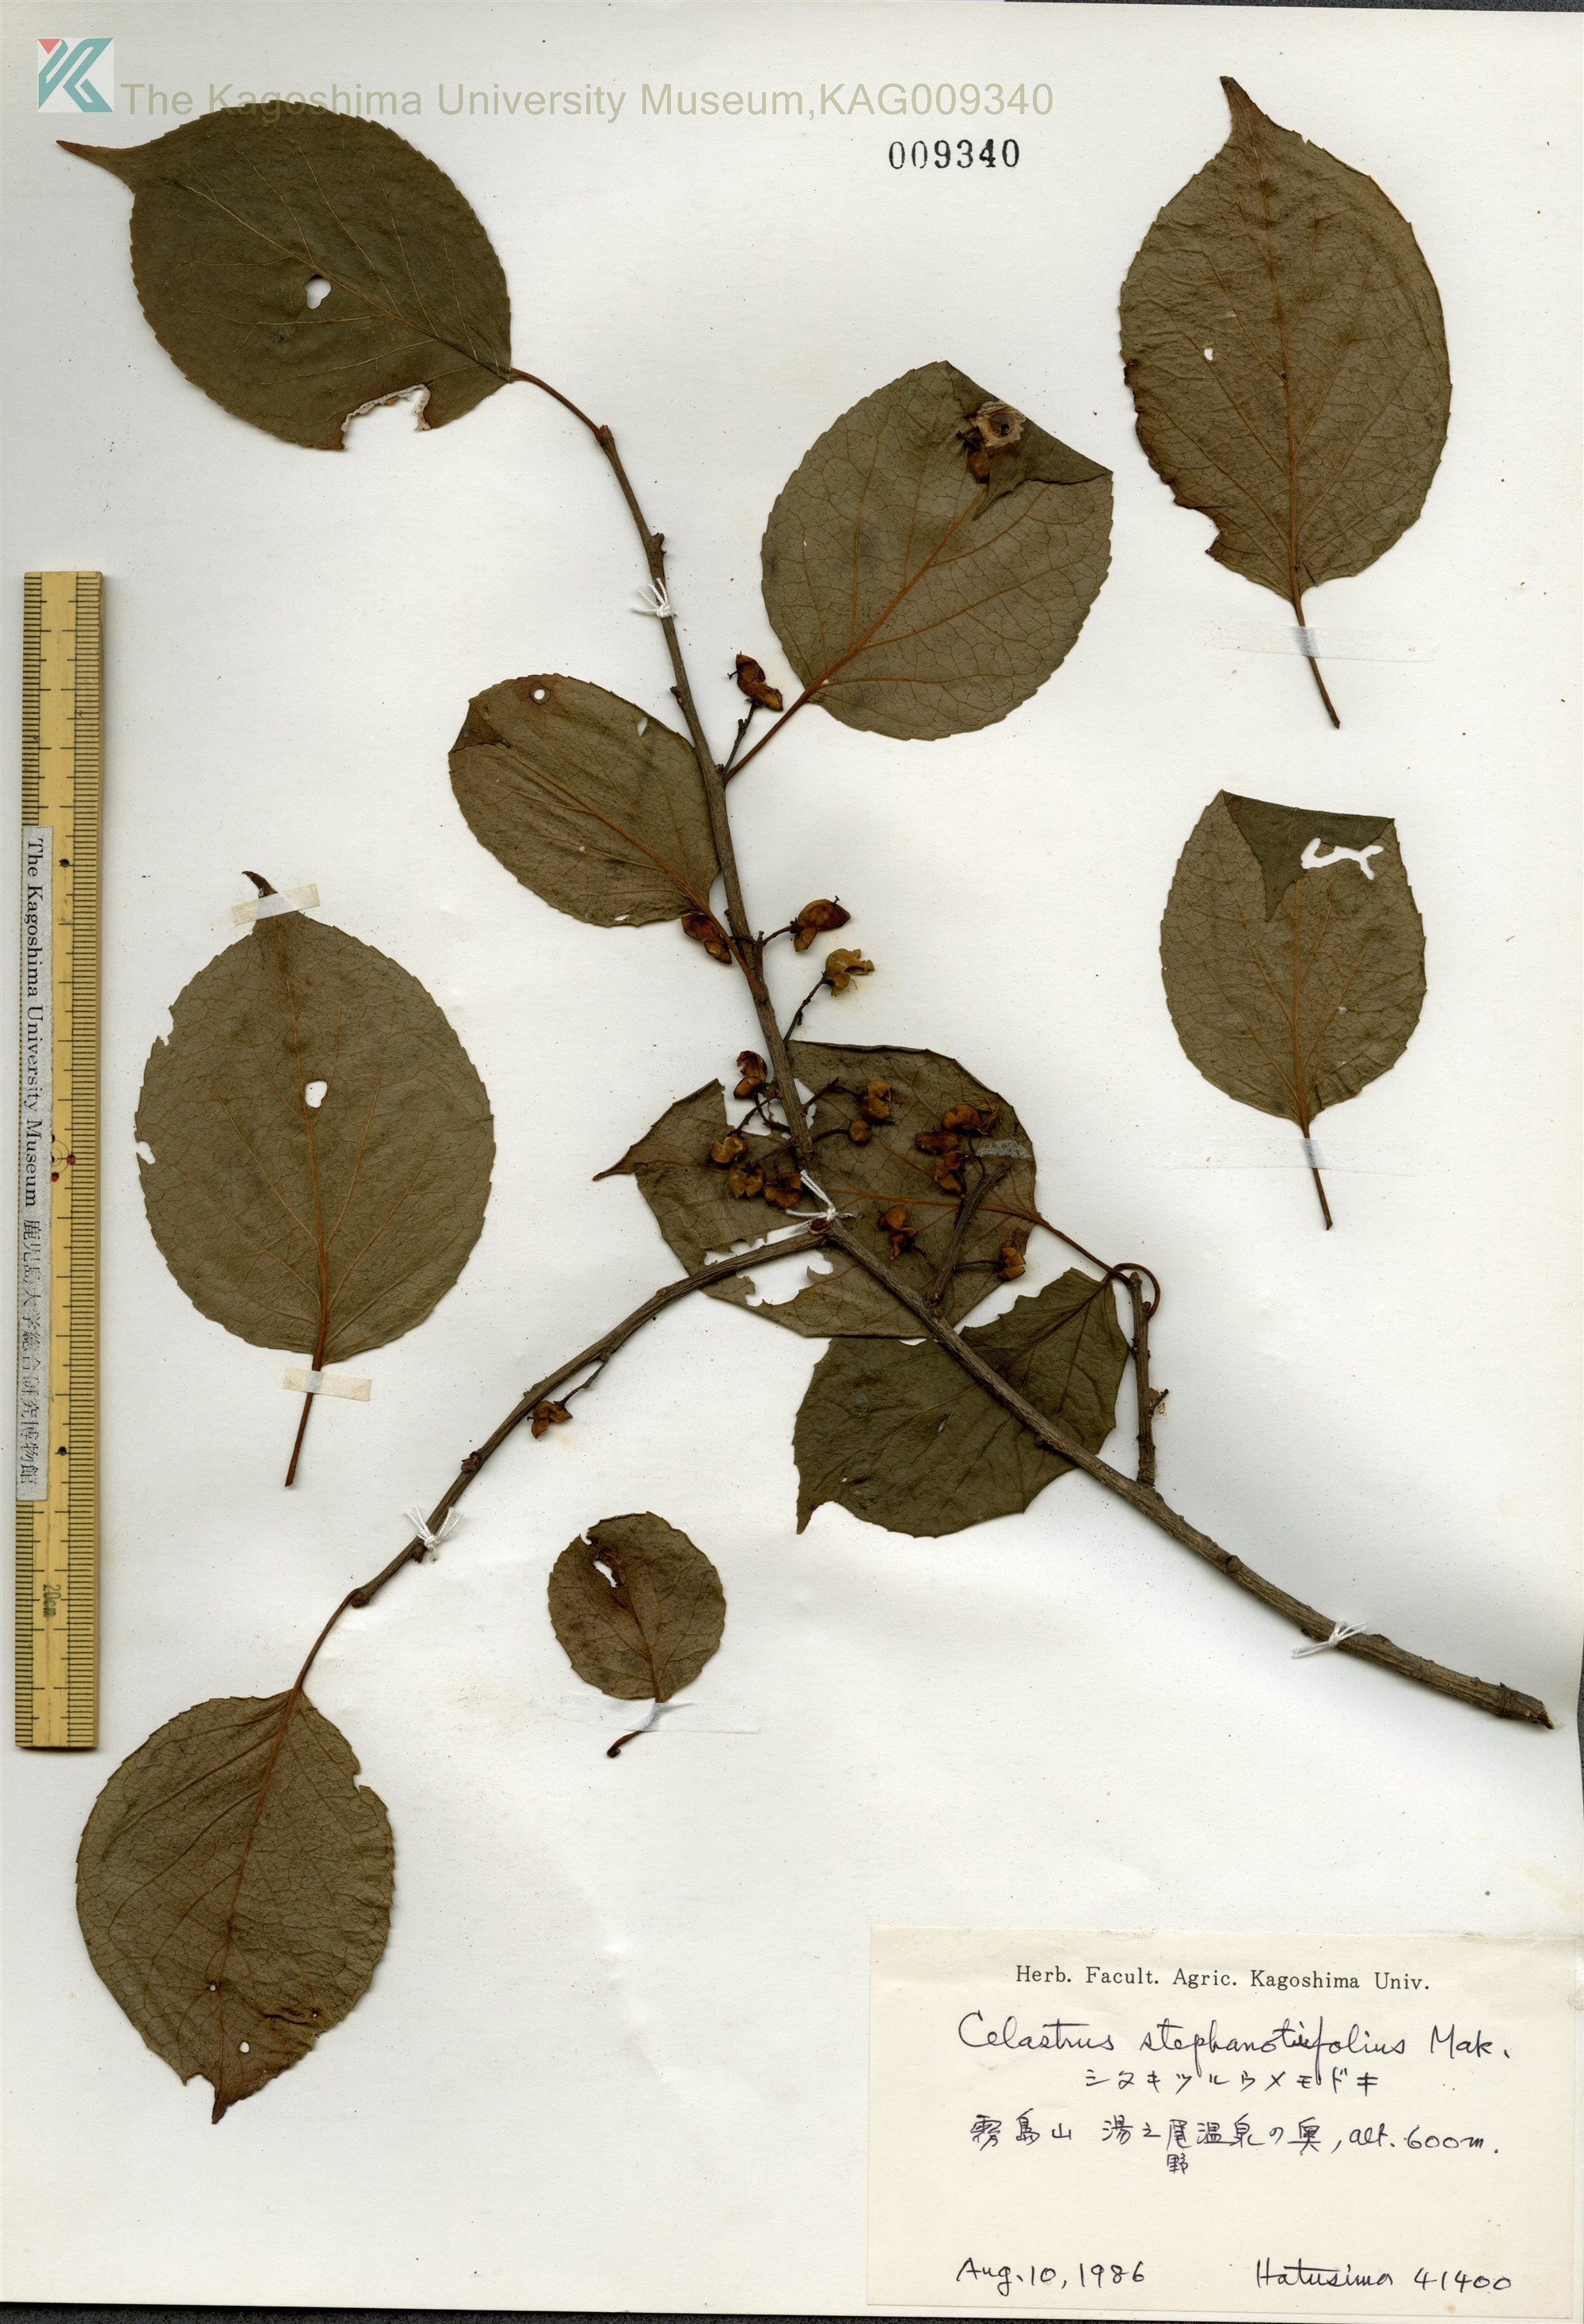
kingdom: Plantae
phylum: Tracheophyta
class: Magnoliopsida
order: Celastrales
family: Celastraceae
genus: Celastrus
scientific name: Celastrus stephanotifolius
